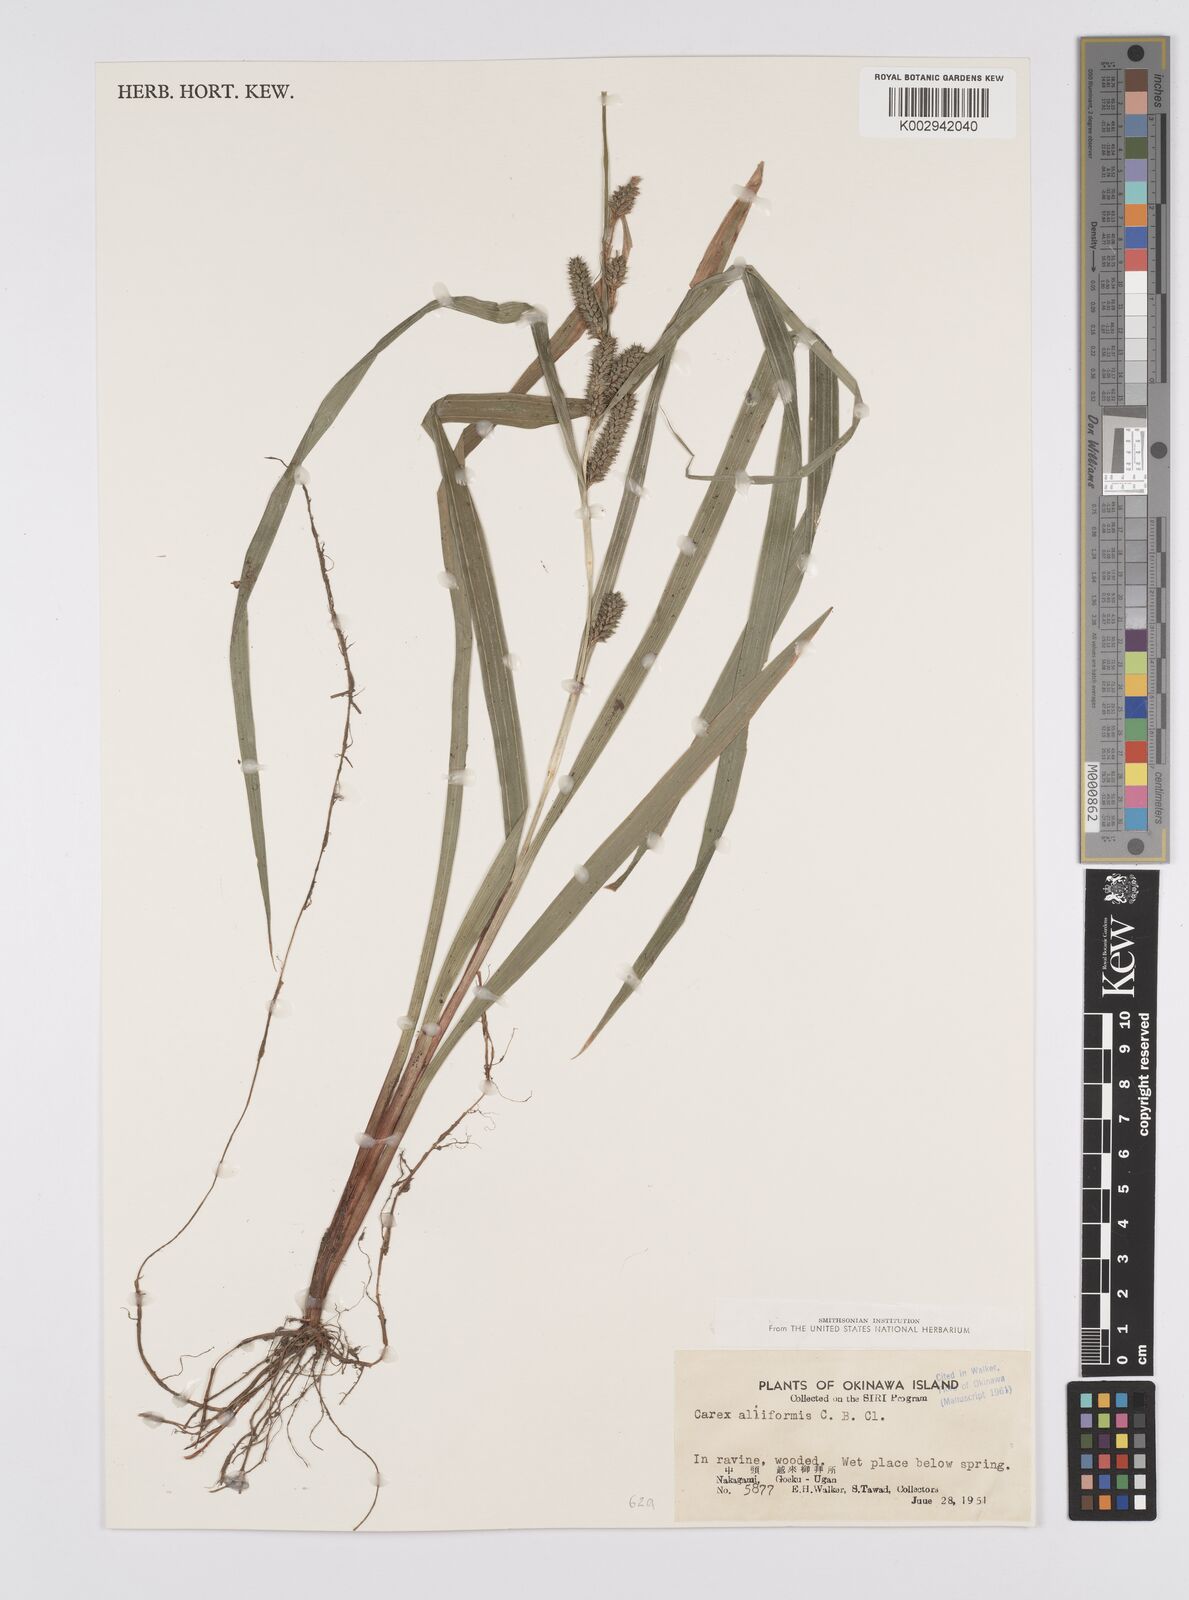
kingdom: Plantae
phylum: Tracheophyta
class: Liliopsida
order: Poales
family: Cyperaceae
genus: Carex
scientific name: Carex alliiformis
